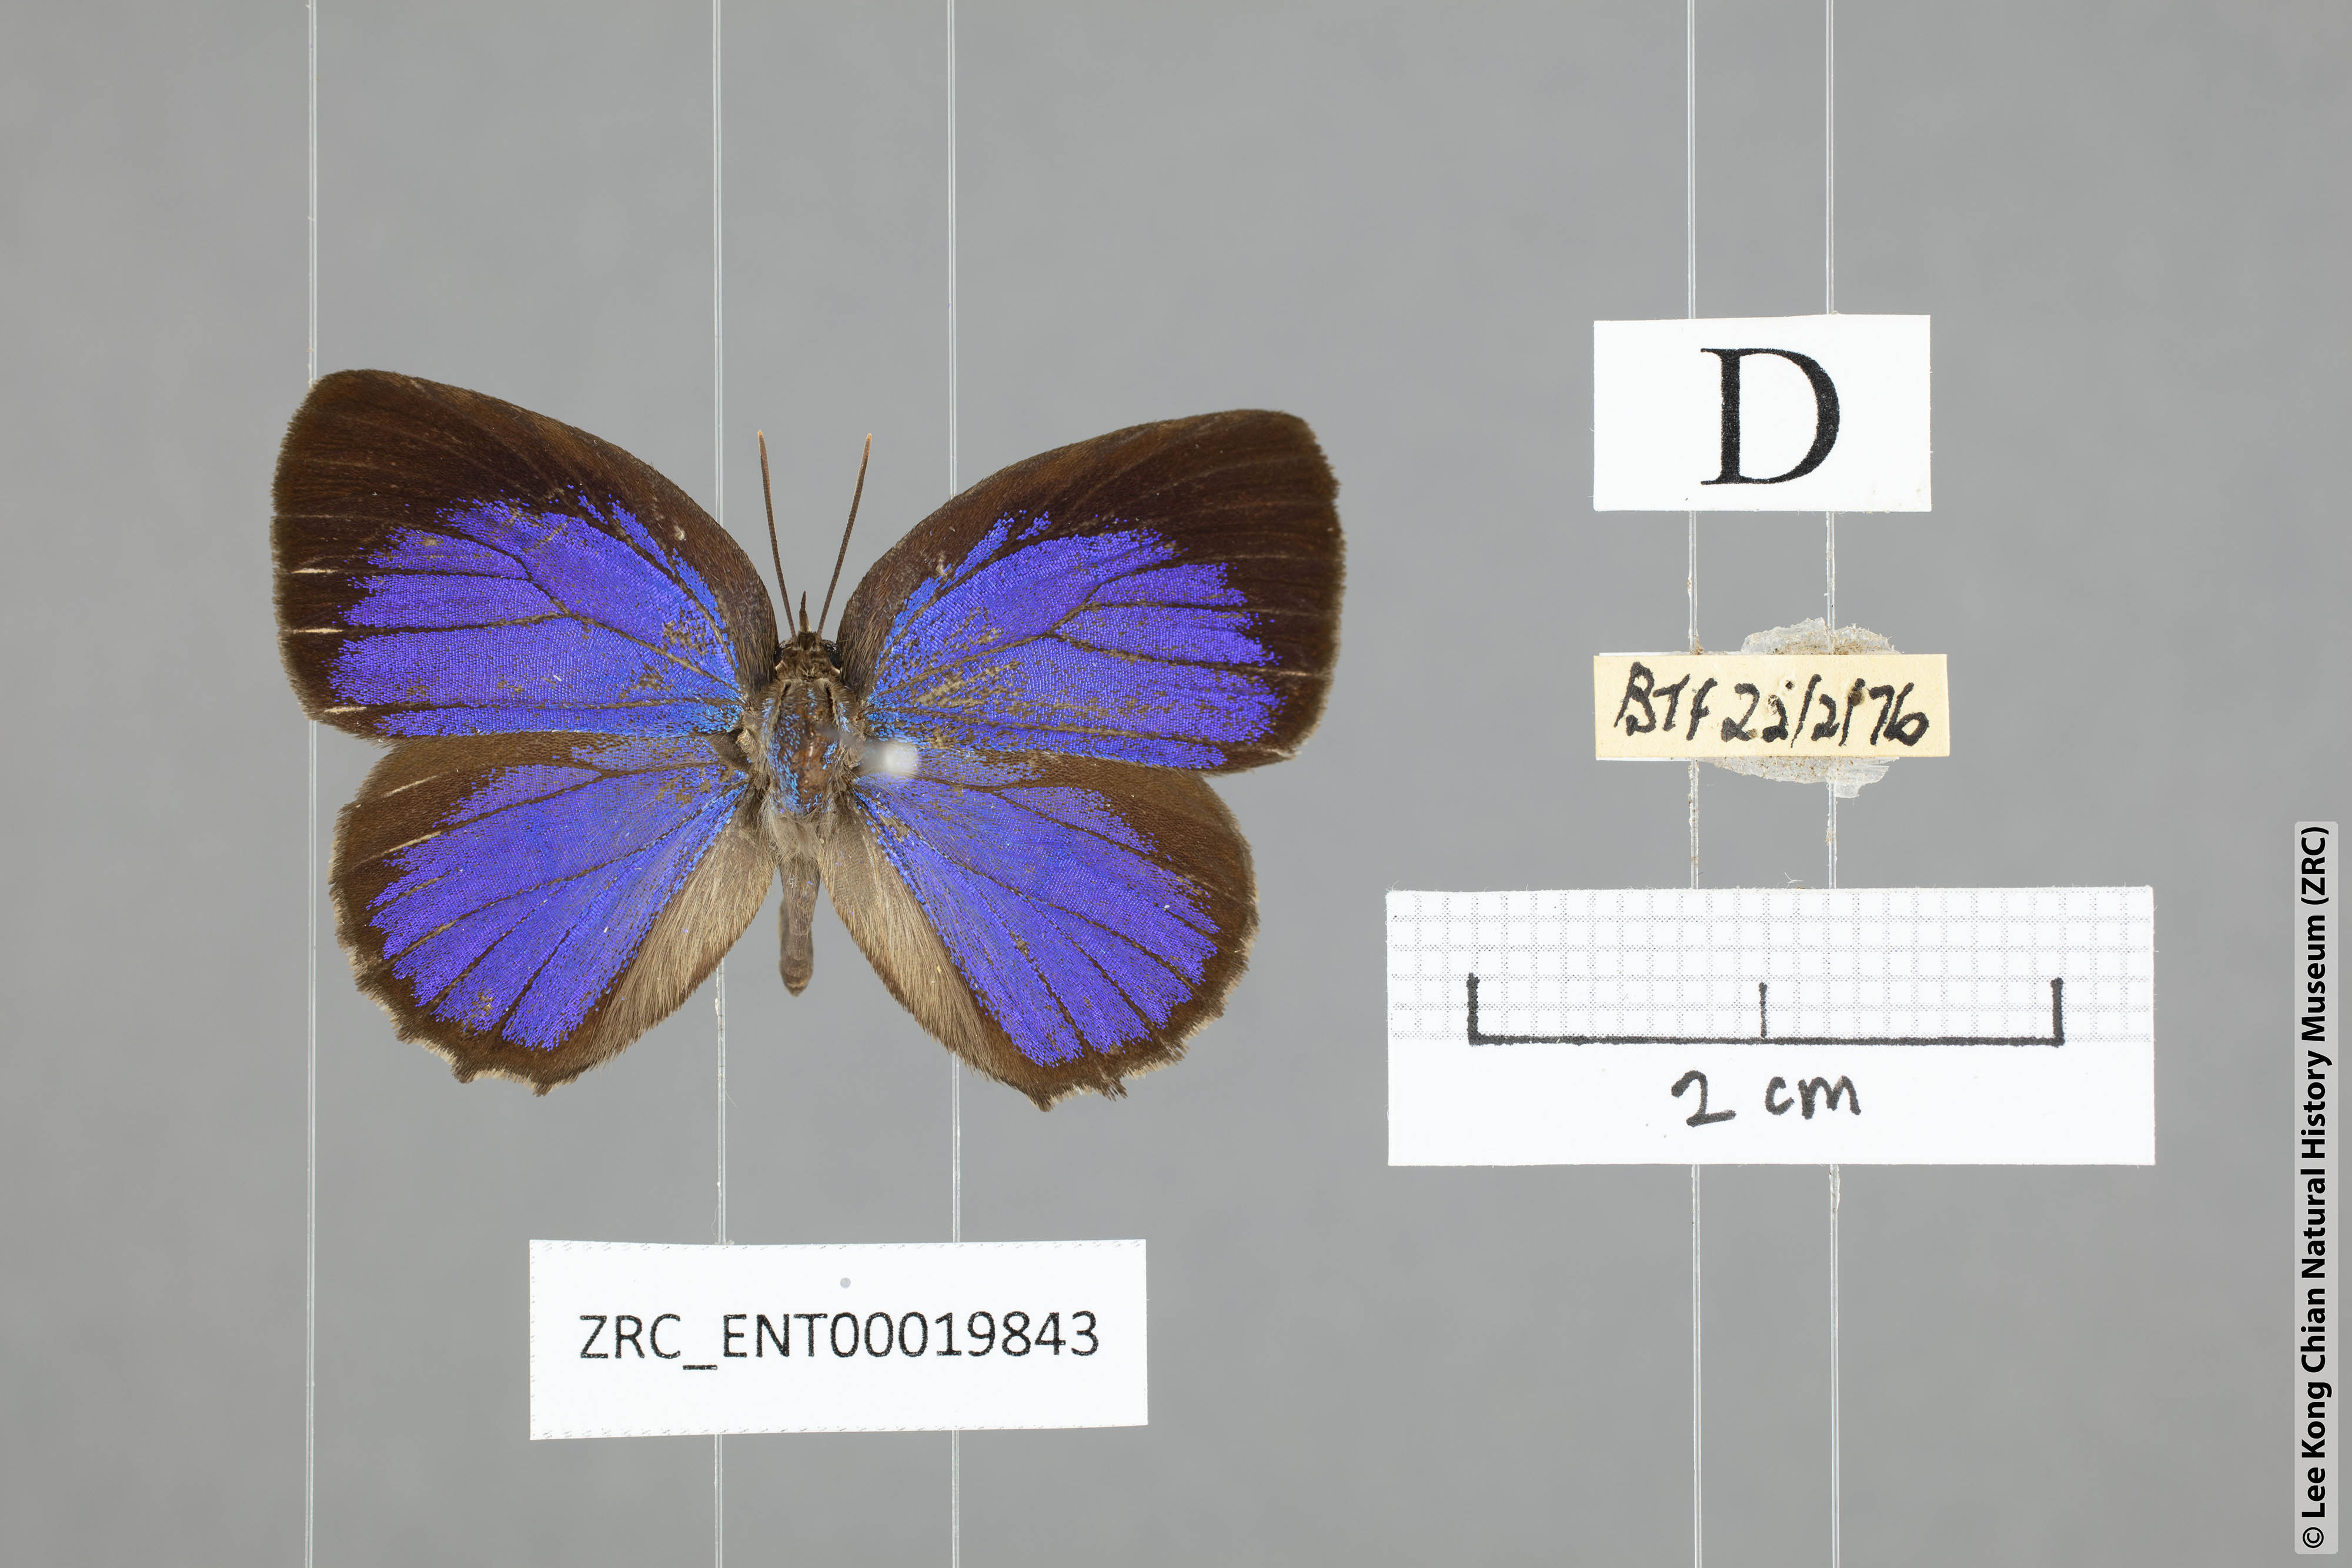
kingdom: Animalia
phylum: Arthropoda
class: Insecta
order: Lepidoptera
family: Lycaenidae
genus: Arhopala
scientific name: Arhopala similis
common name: Druce's oakblue
